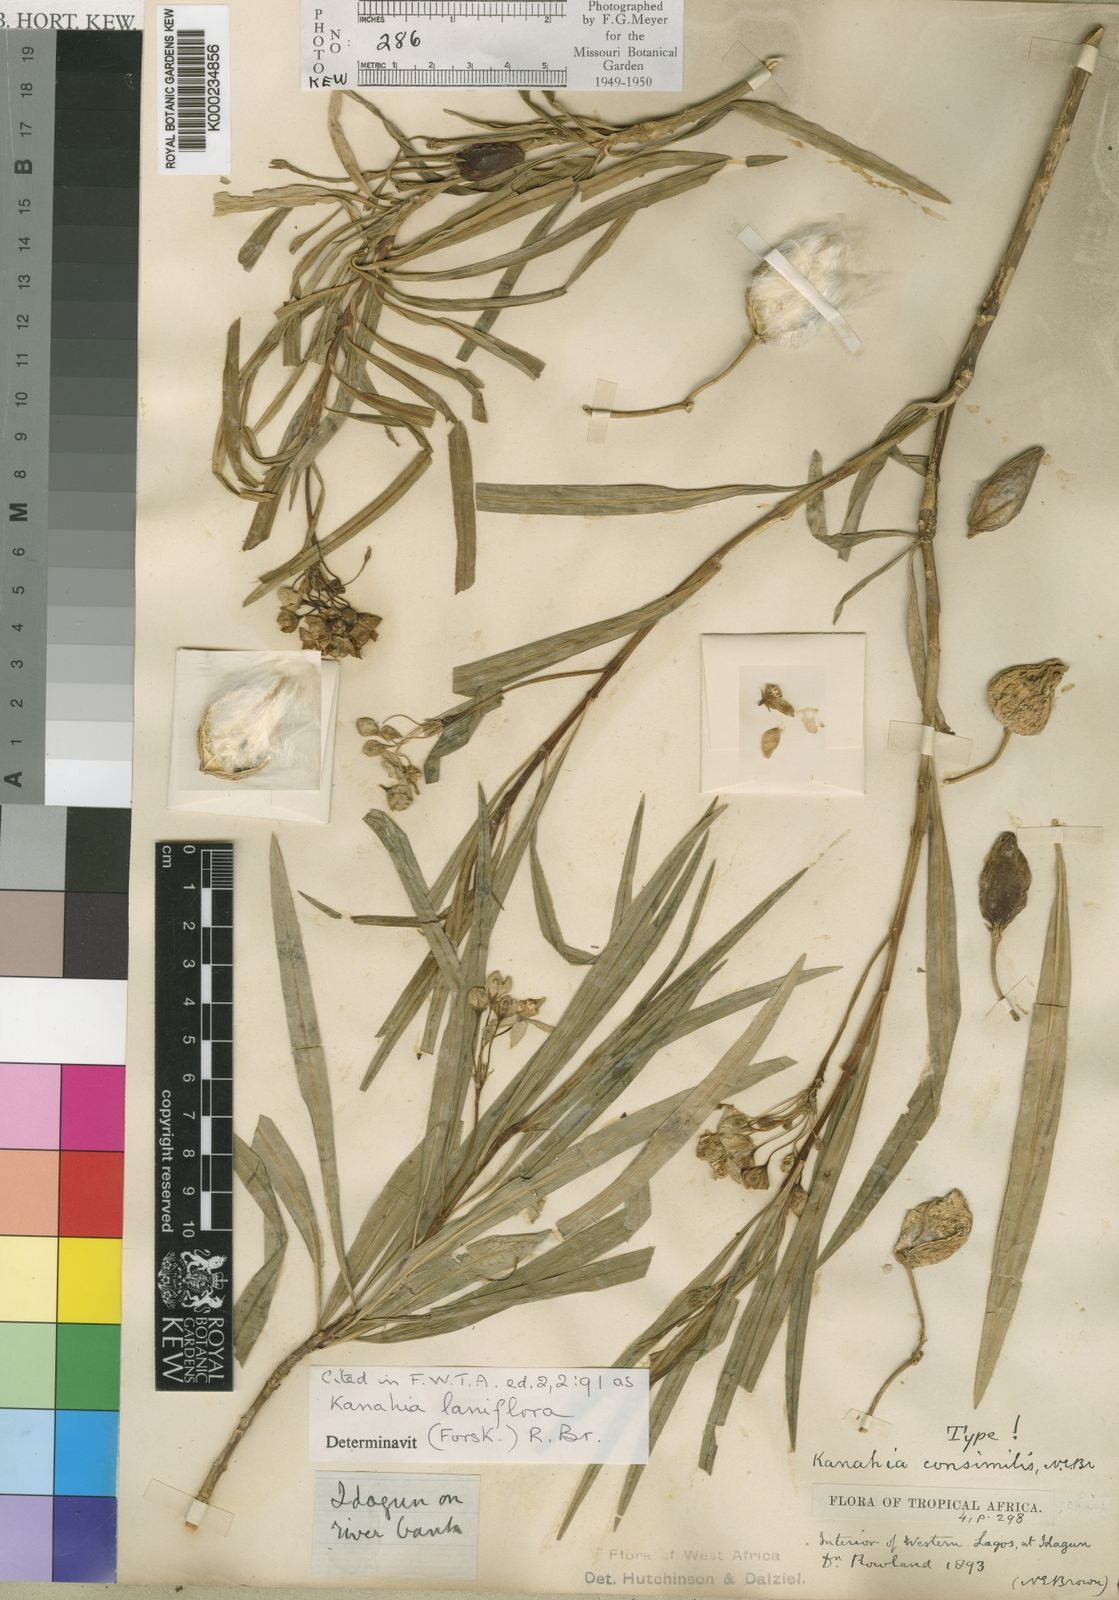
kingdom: Plantae
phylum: Tracheophyta
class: Magnoliopsida
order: Gentianales
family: Apocynaceae
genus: Kanahia
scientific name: Kanahia laniflora
